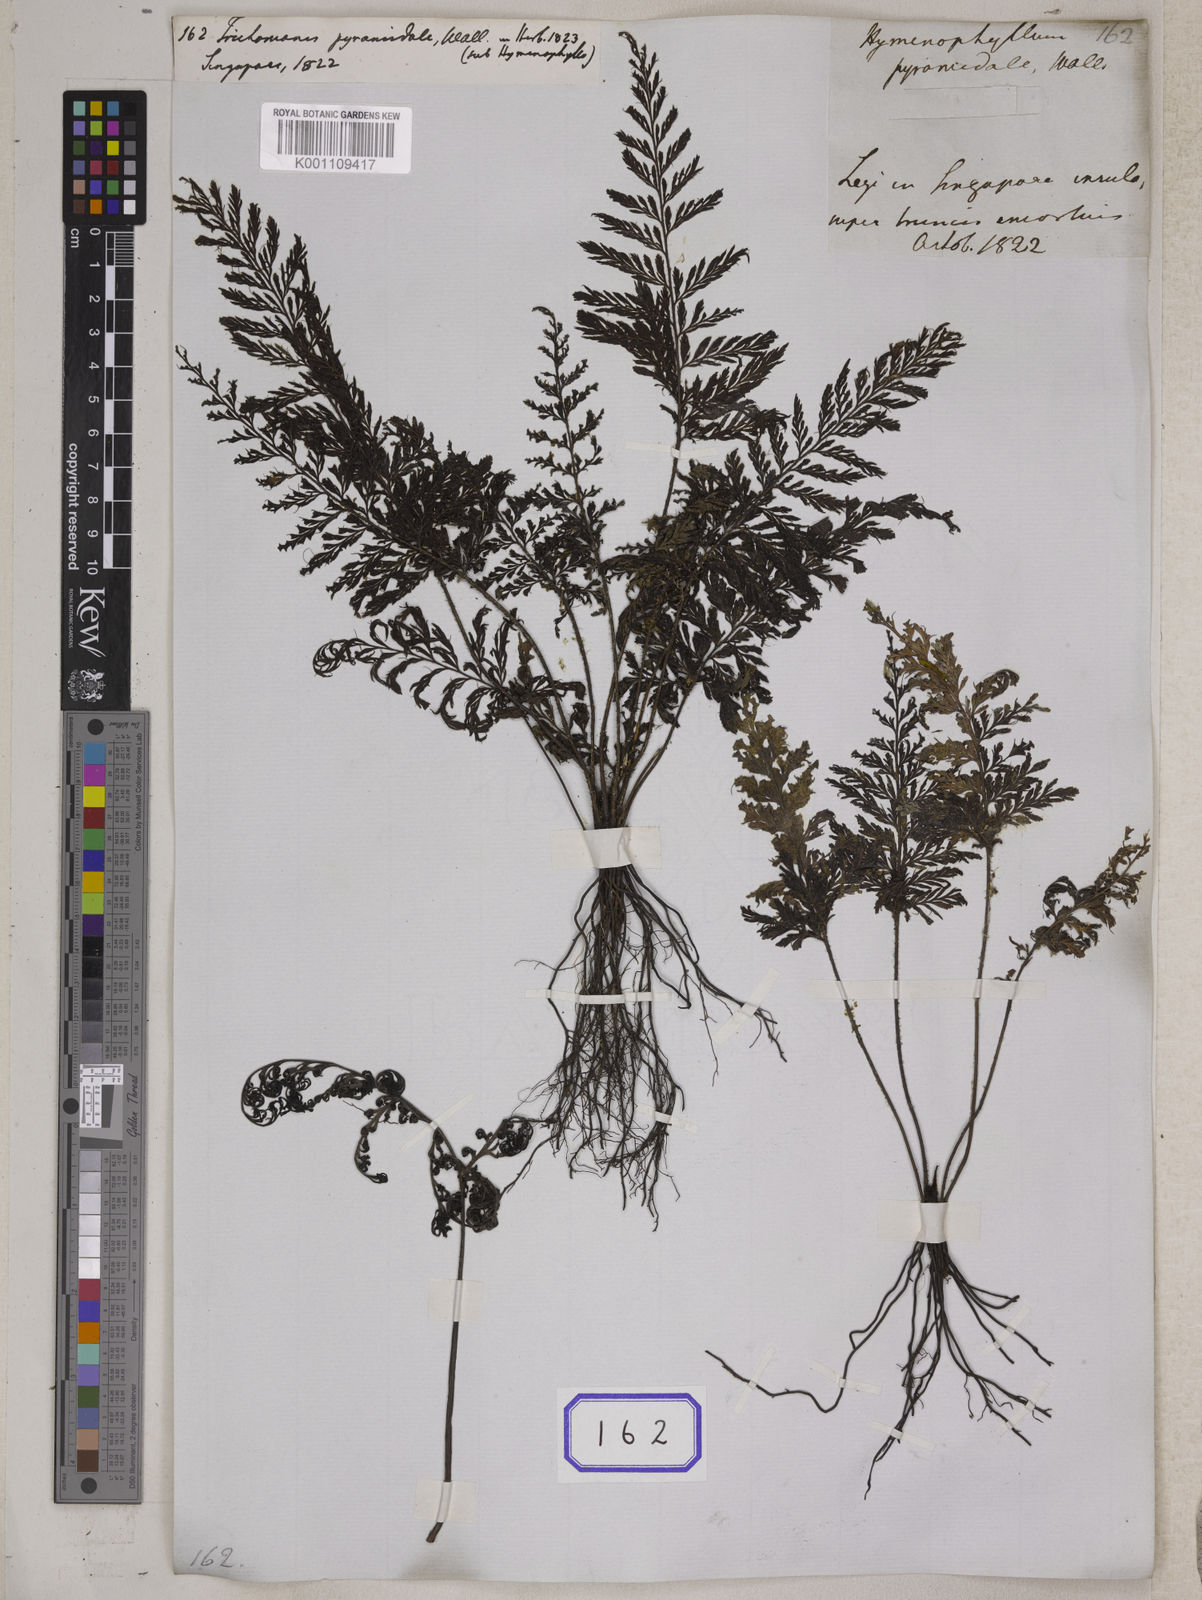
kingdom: Plantae
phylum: Tracheophyta
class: Polypodiopsida
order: Hymenophyllales
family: Hymenophyllaceae
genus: Abrodictyum
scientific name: Abrodictyum setaceum
